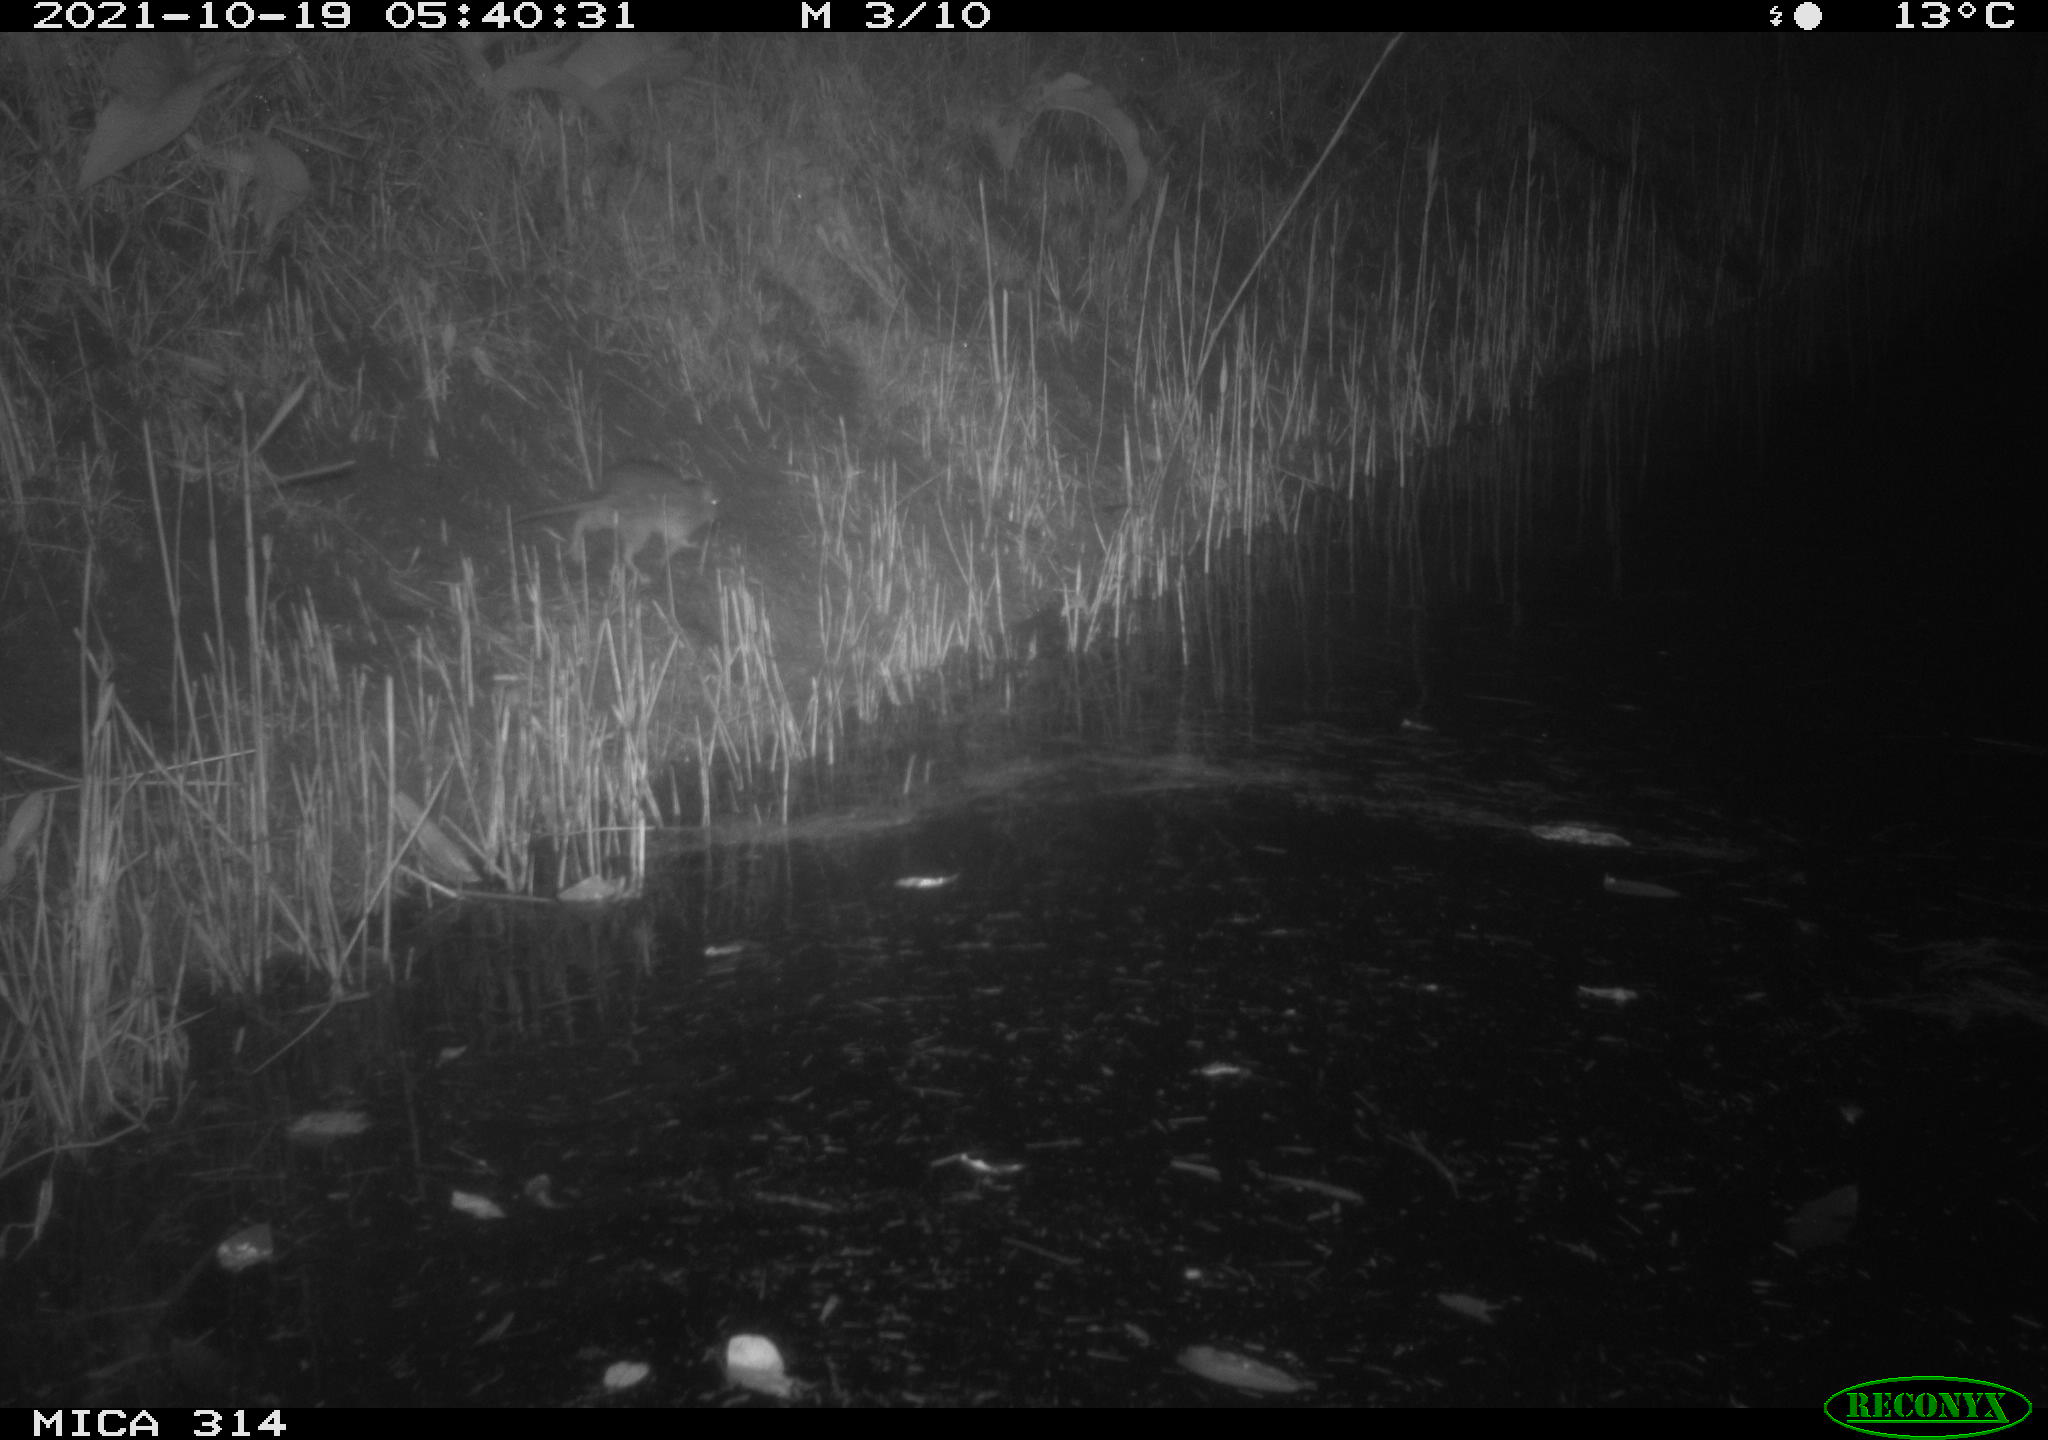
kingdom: Animalia
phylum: Chordata
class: Mammalia
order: Rodentia
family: Muridae
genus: Rattus
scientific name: Rattus norvegicus
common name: Brown rat
